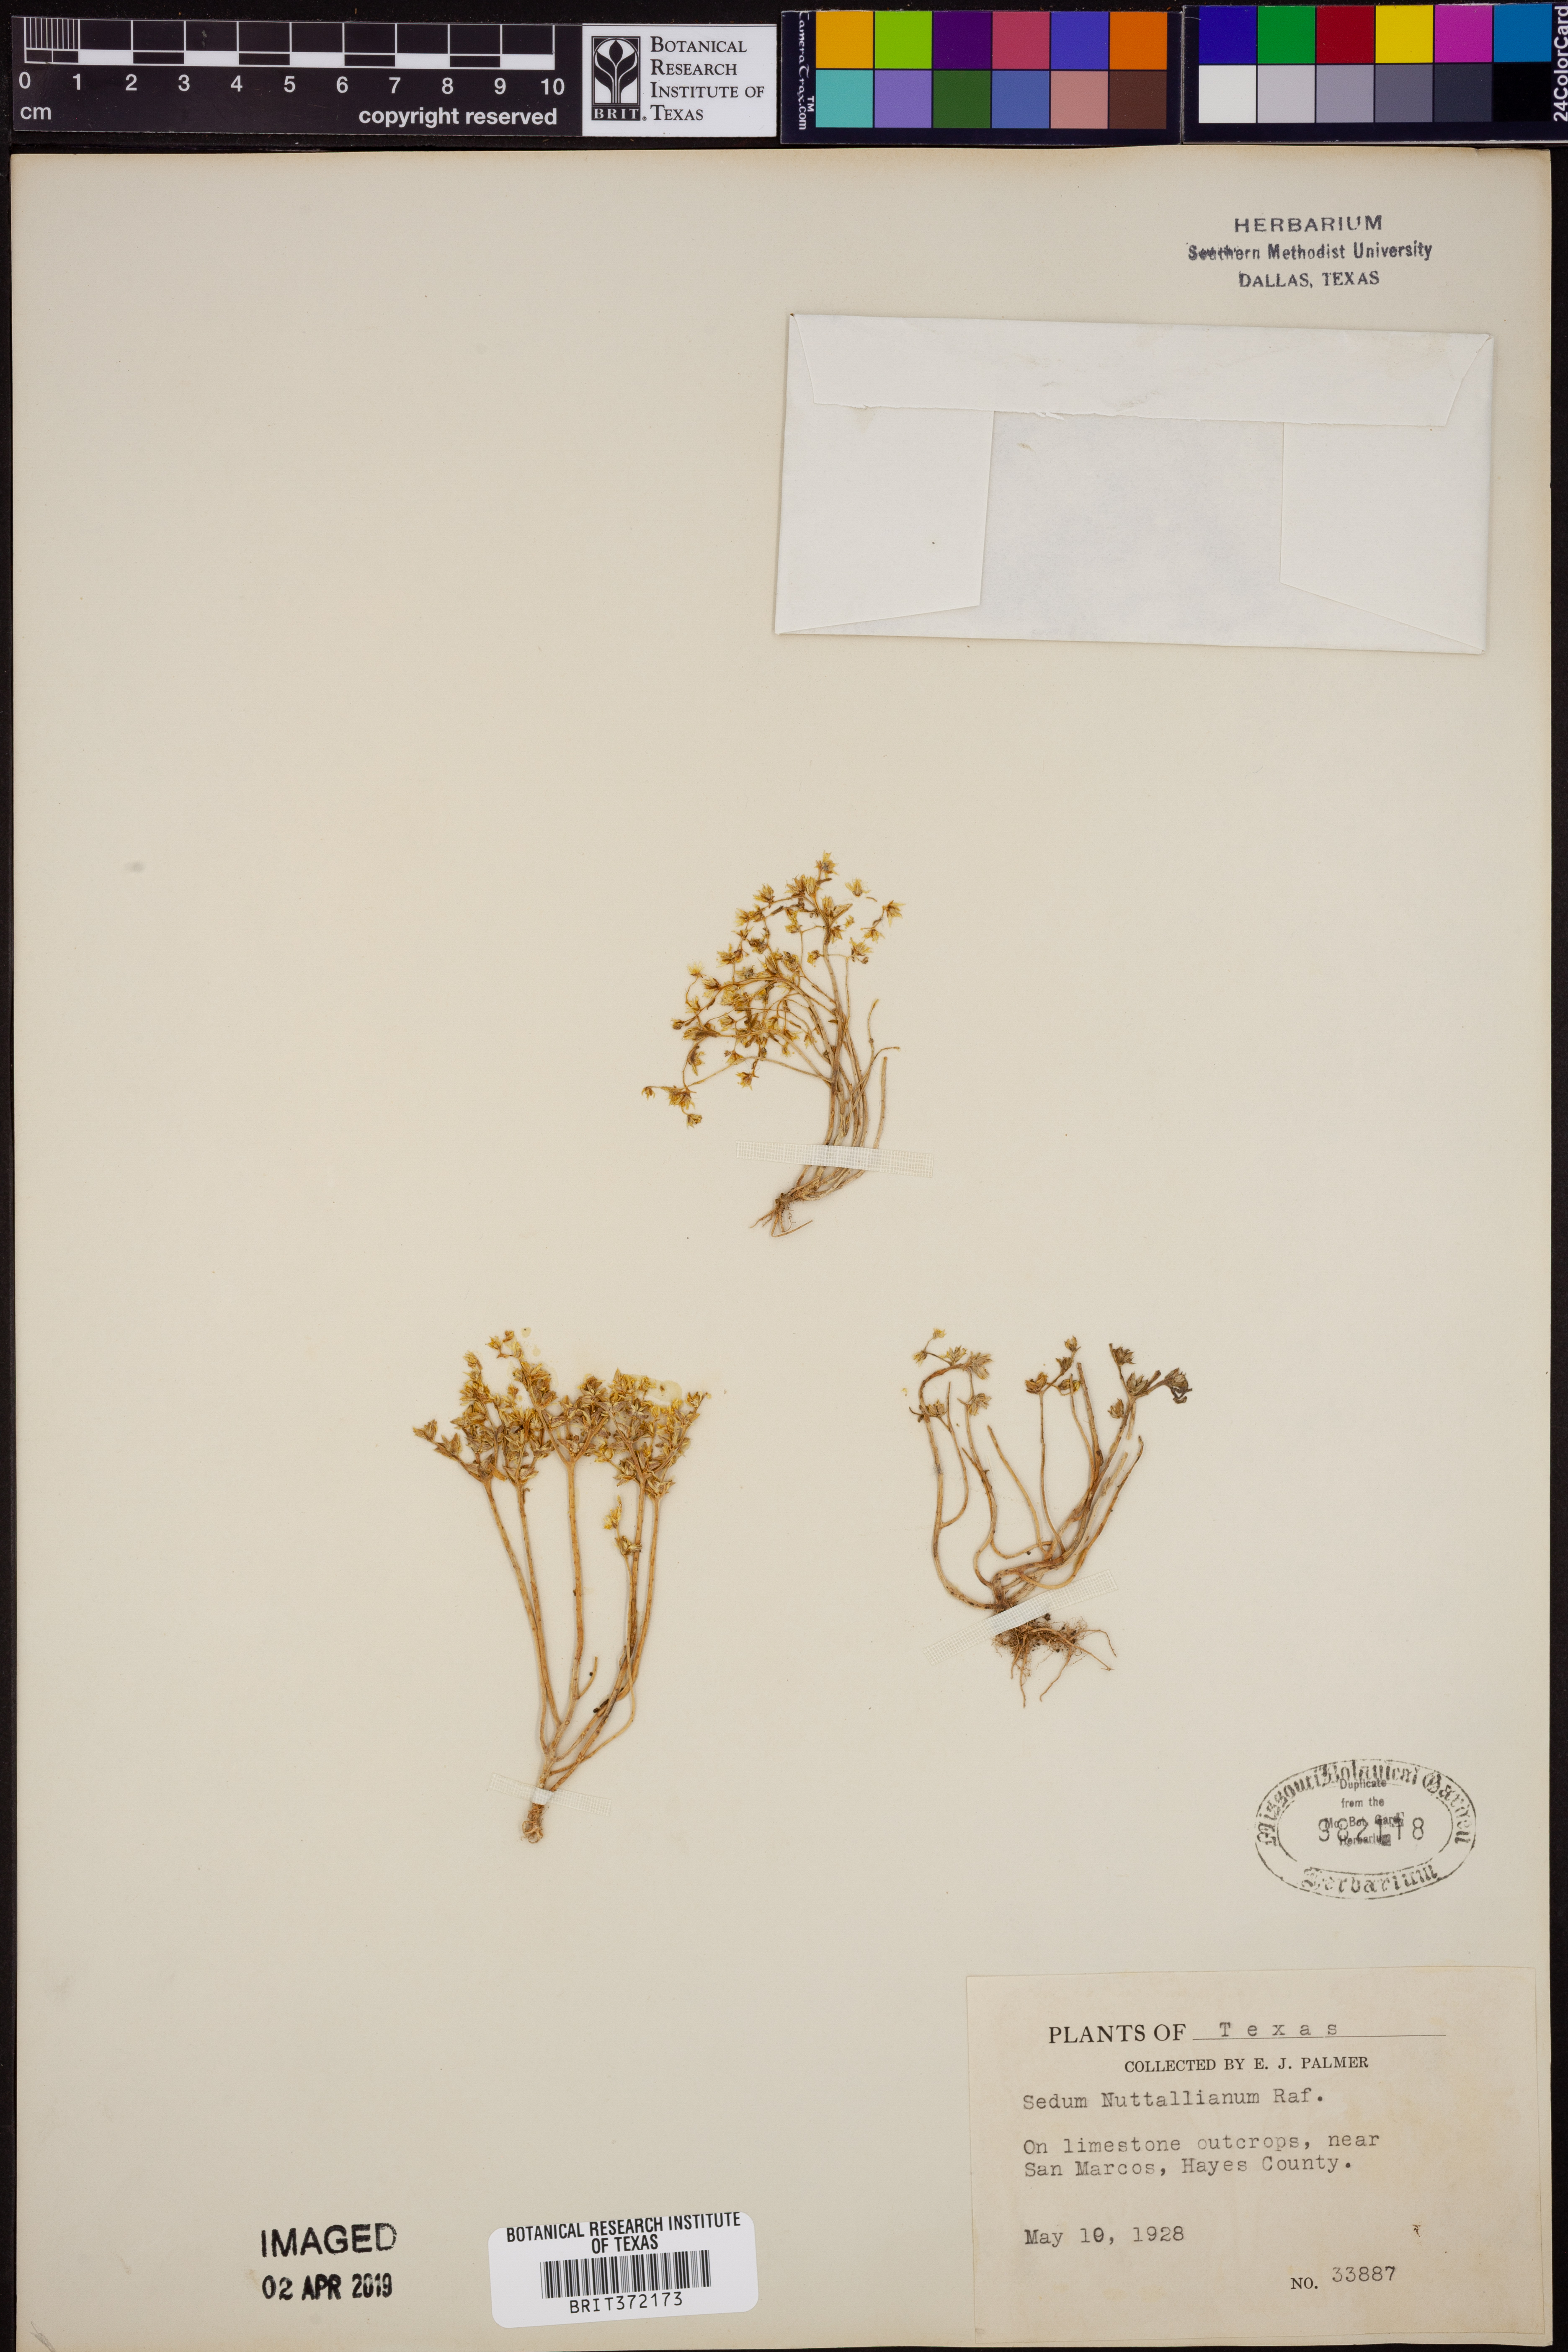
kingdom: Plantae
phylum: Tracheophyta
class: Magnoliopsida
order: Saxifragales
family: Crassulaceae
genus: Sedum
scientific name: Sedum nuttallii
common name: Yellow stonecrop
